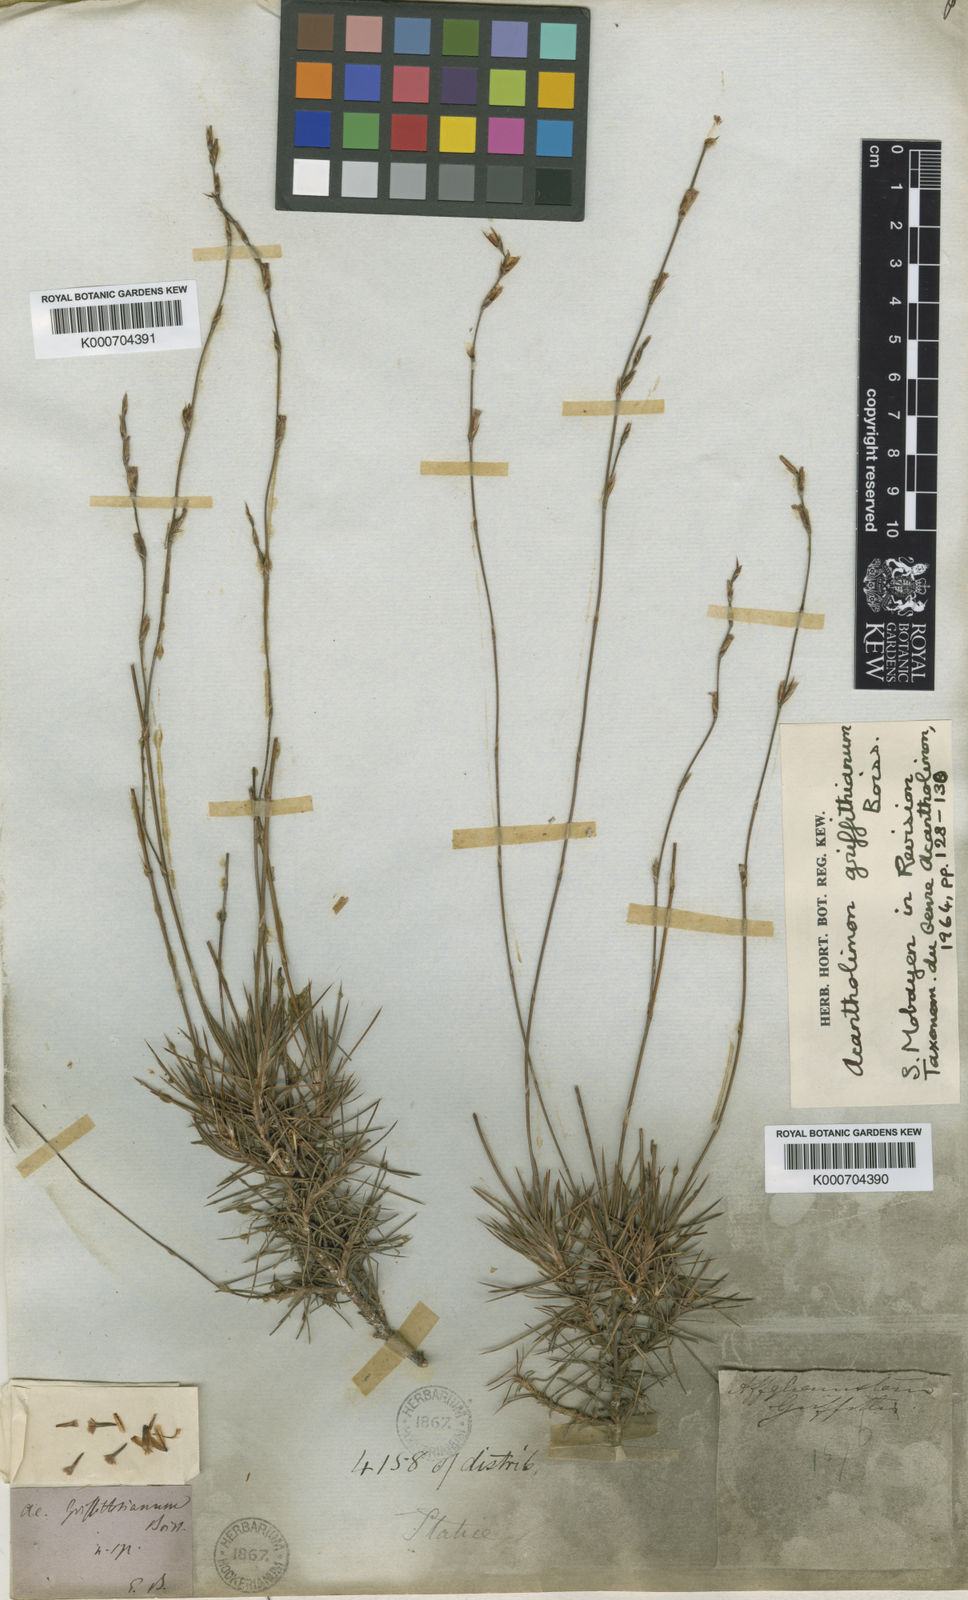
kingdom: Plantae
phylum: Tracheophyta
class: Magnoliopsida
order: Caryophyllales
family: Plumbaginaceae
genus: Acantholimon
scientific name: Acantholimon griffithianum
